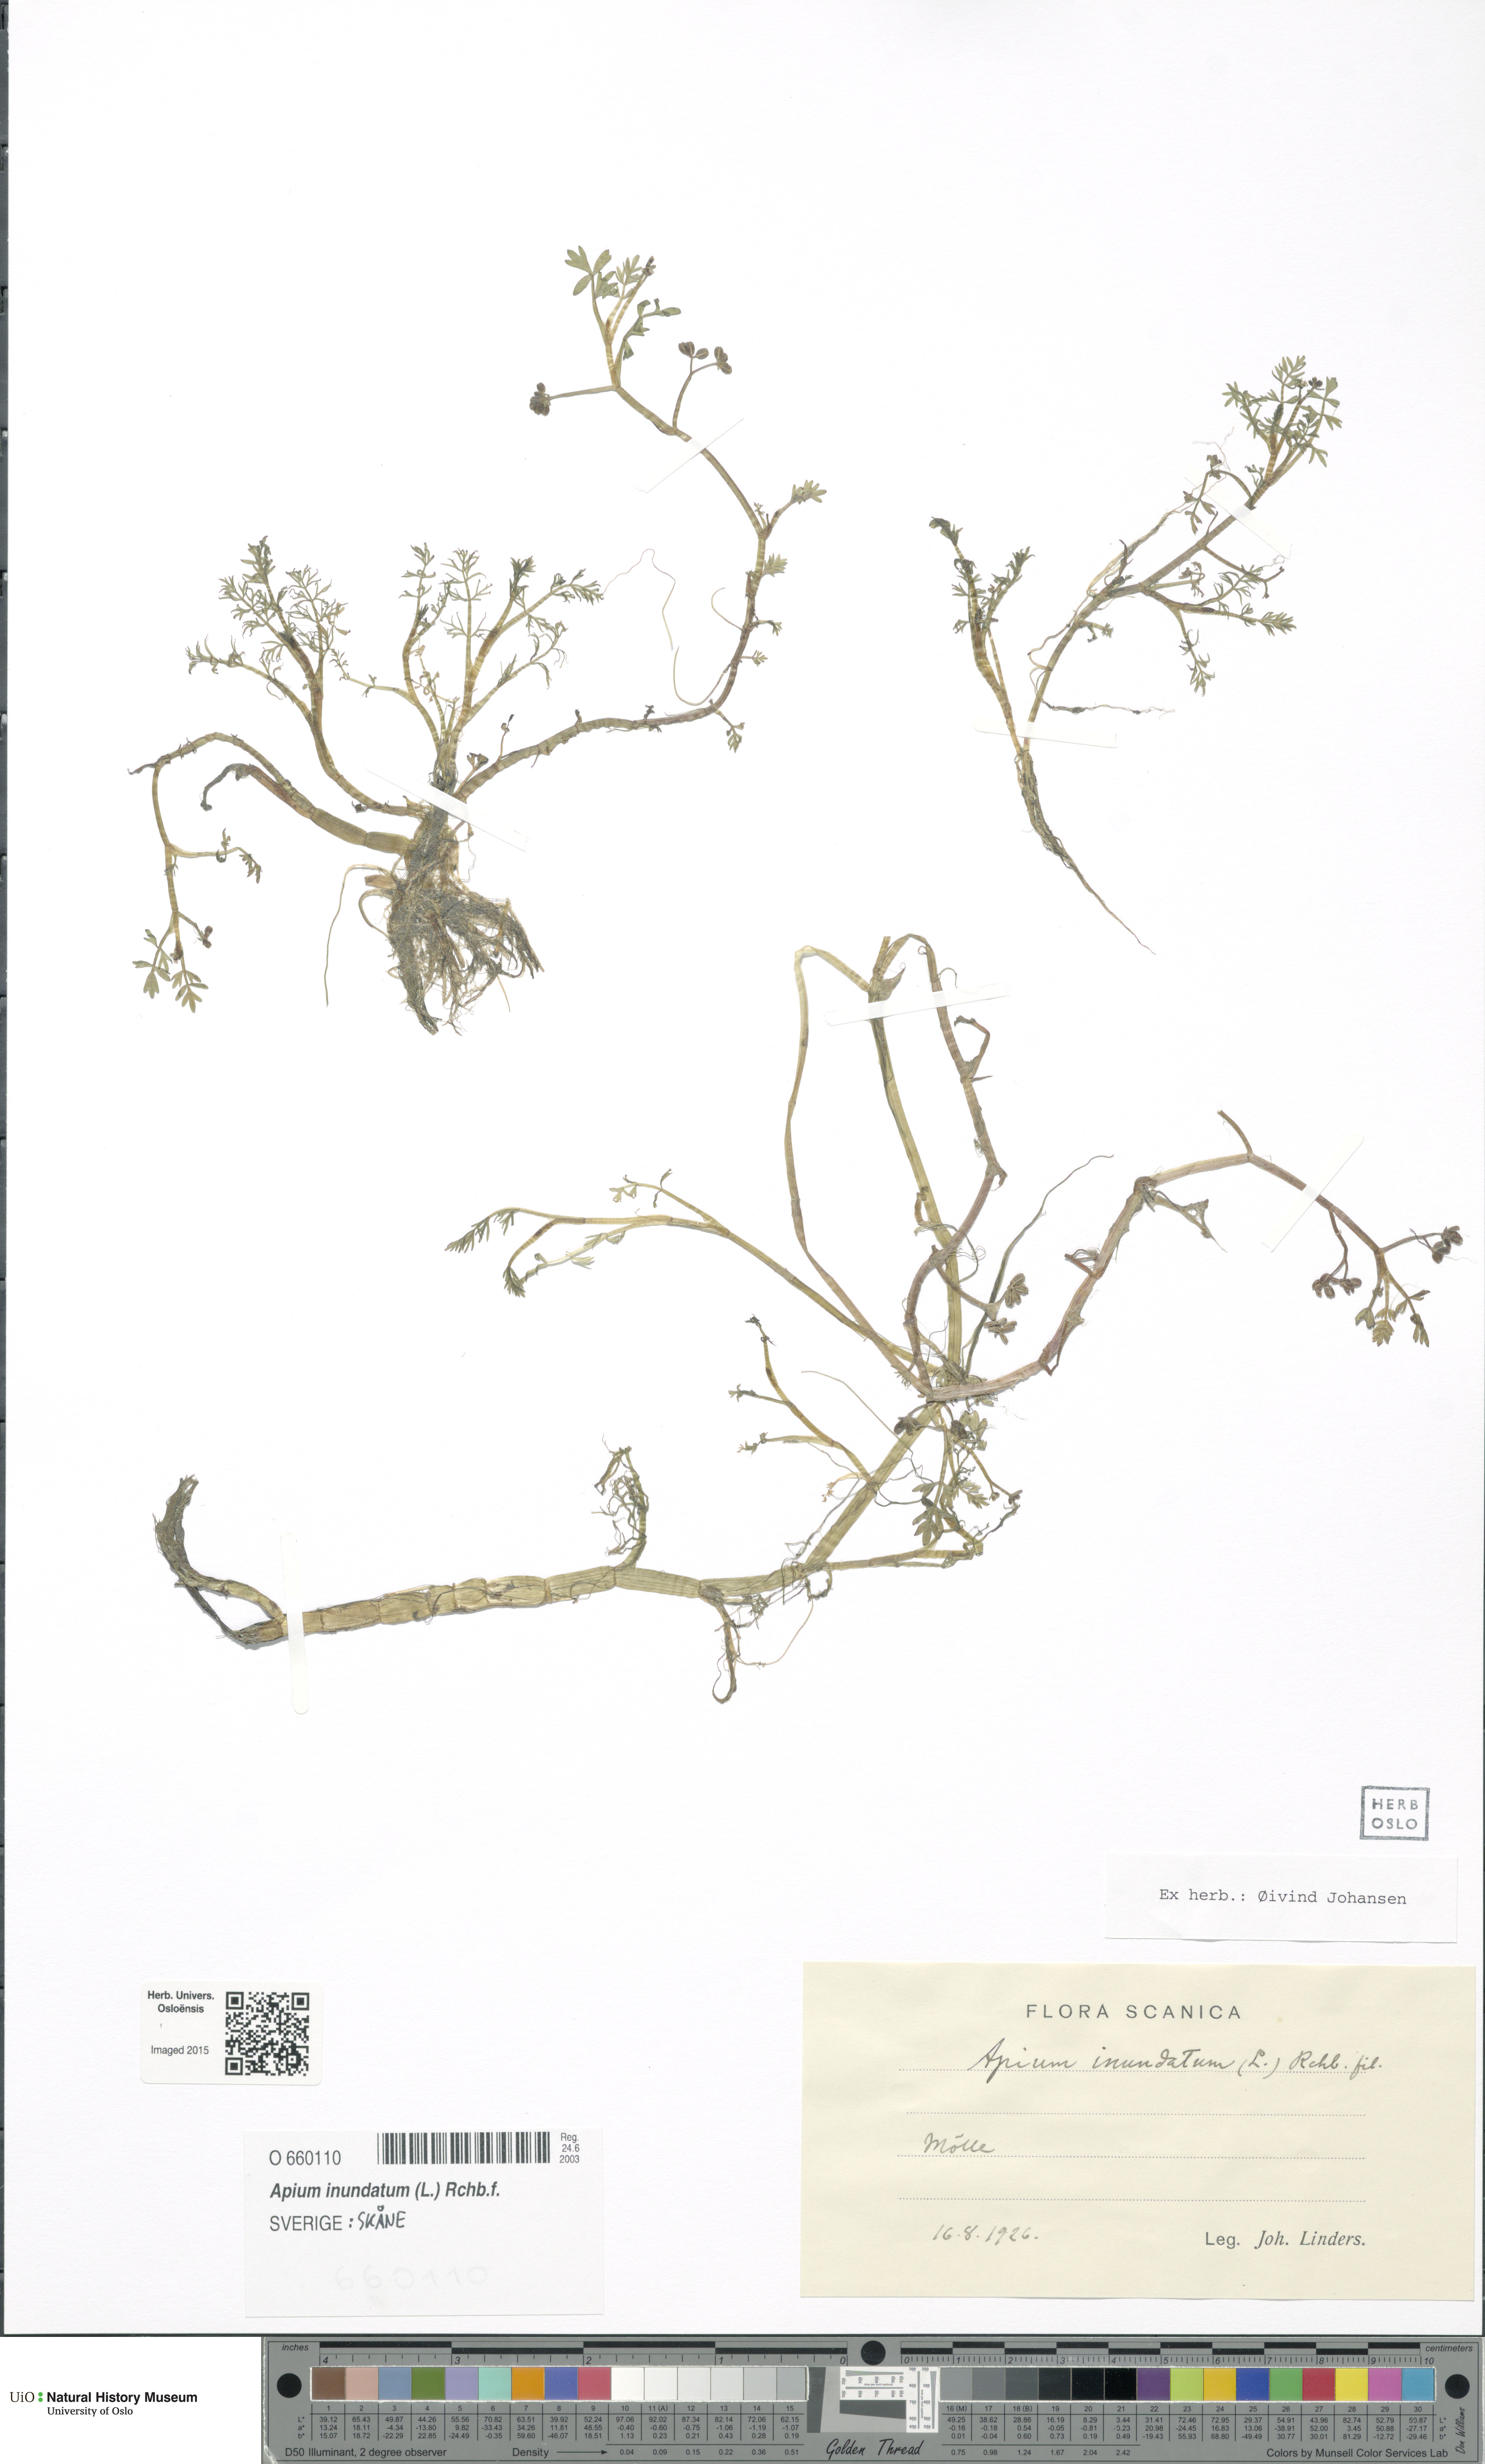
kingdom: Plantae
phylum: Tracheophyta
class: Magnoliopsida
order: Apiales
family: Apiaceae
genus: Helosciadium
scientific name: Helosciadium inundatum
